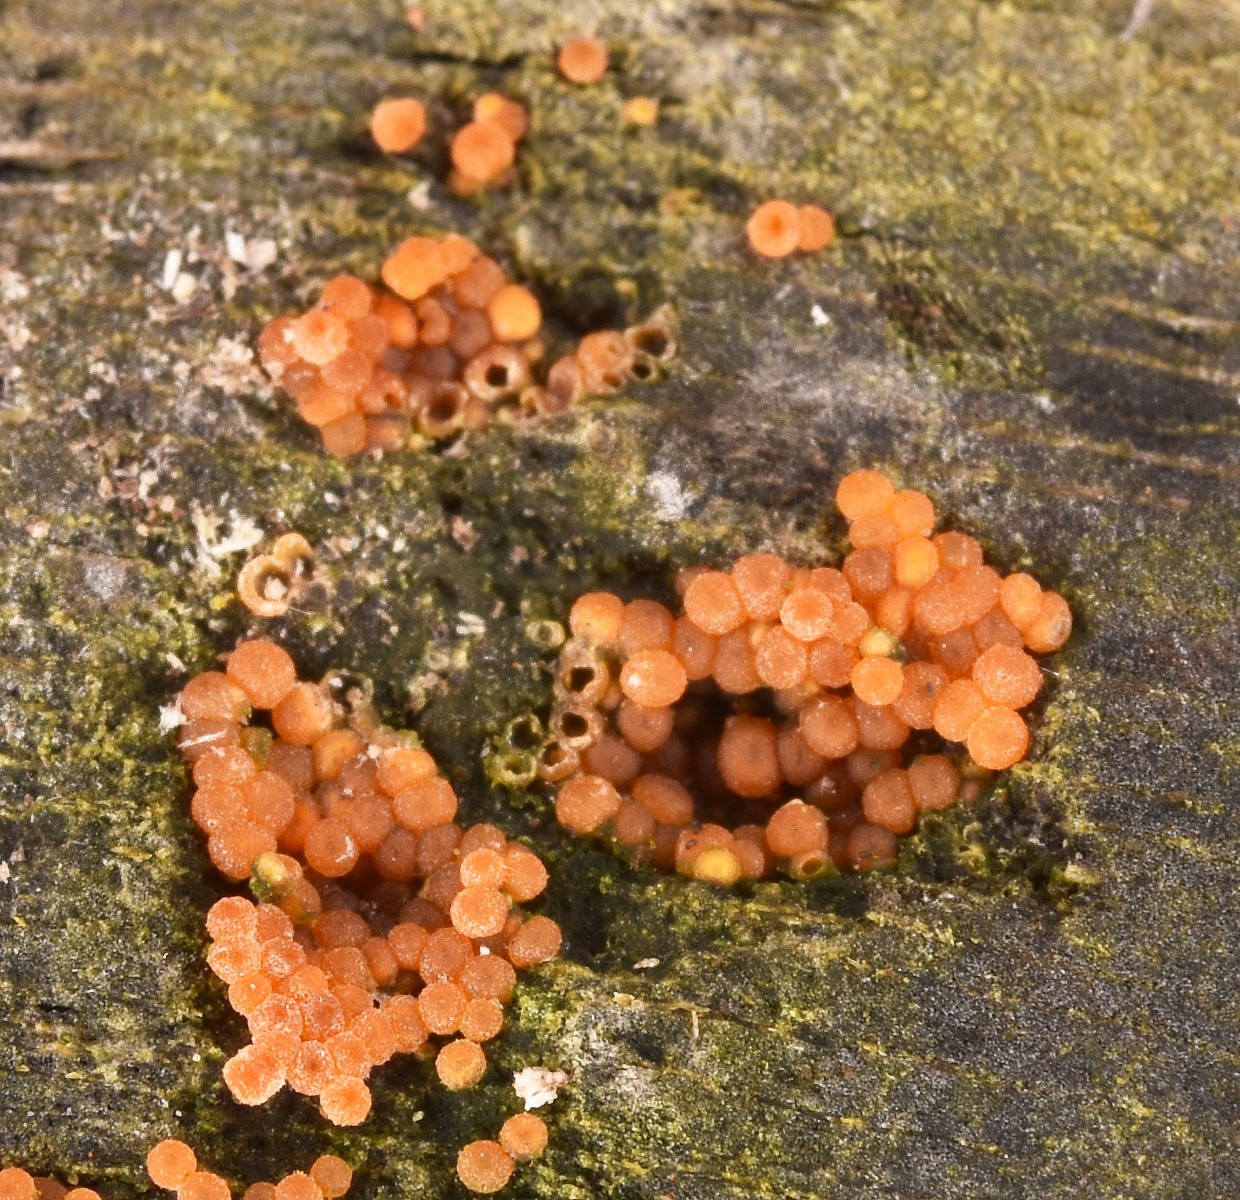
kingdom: Fungi
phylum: Ascomycota
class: Sordariomycetes
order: Hypocreales
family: Nectriaceae
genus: Hydropisphaera
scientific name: Hydropisphaera peziza
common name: skålformet gyldenkerne
